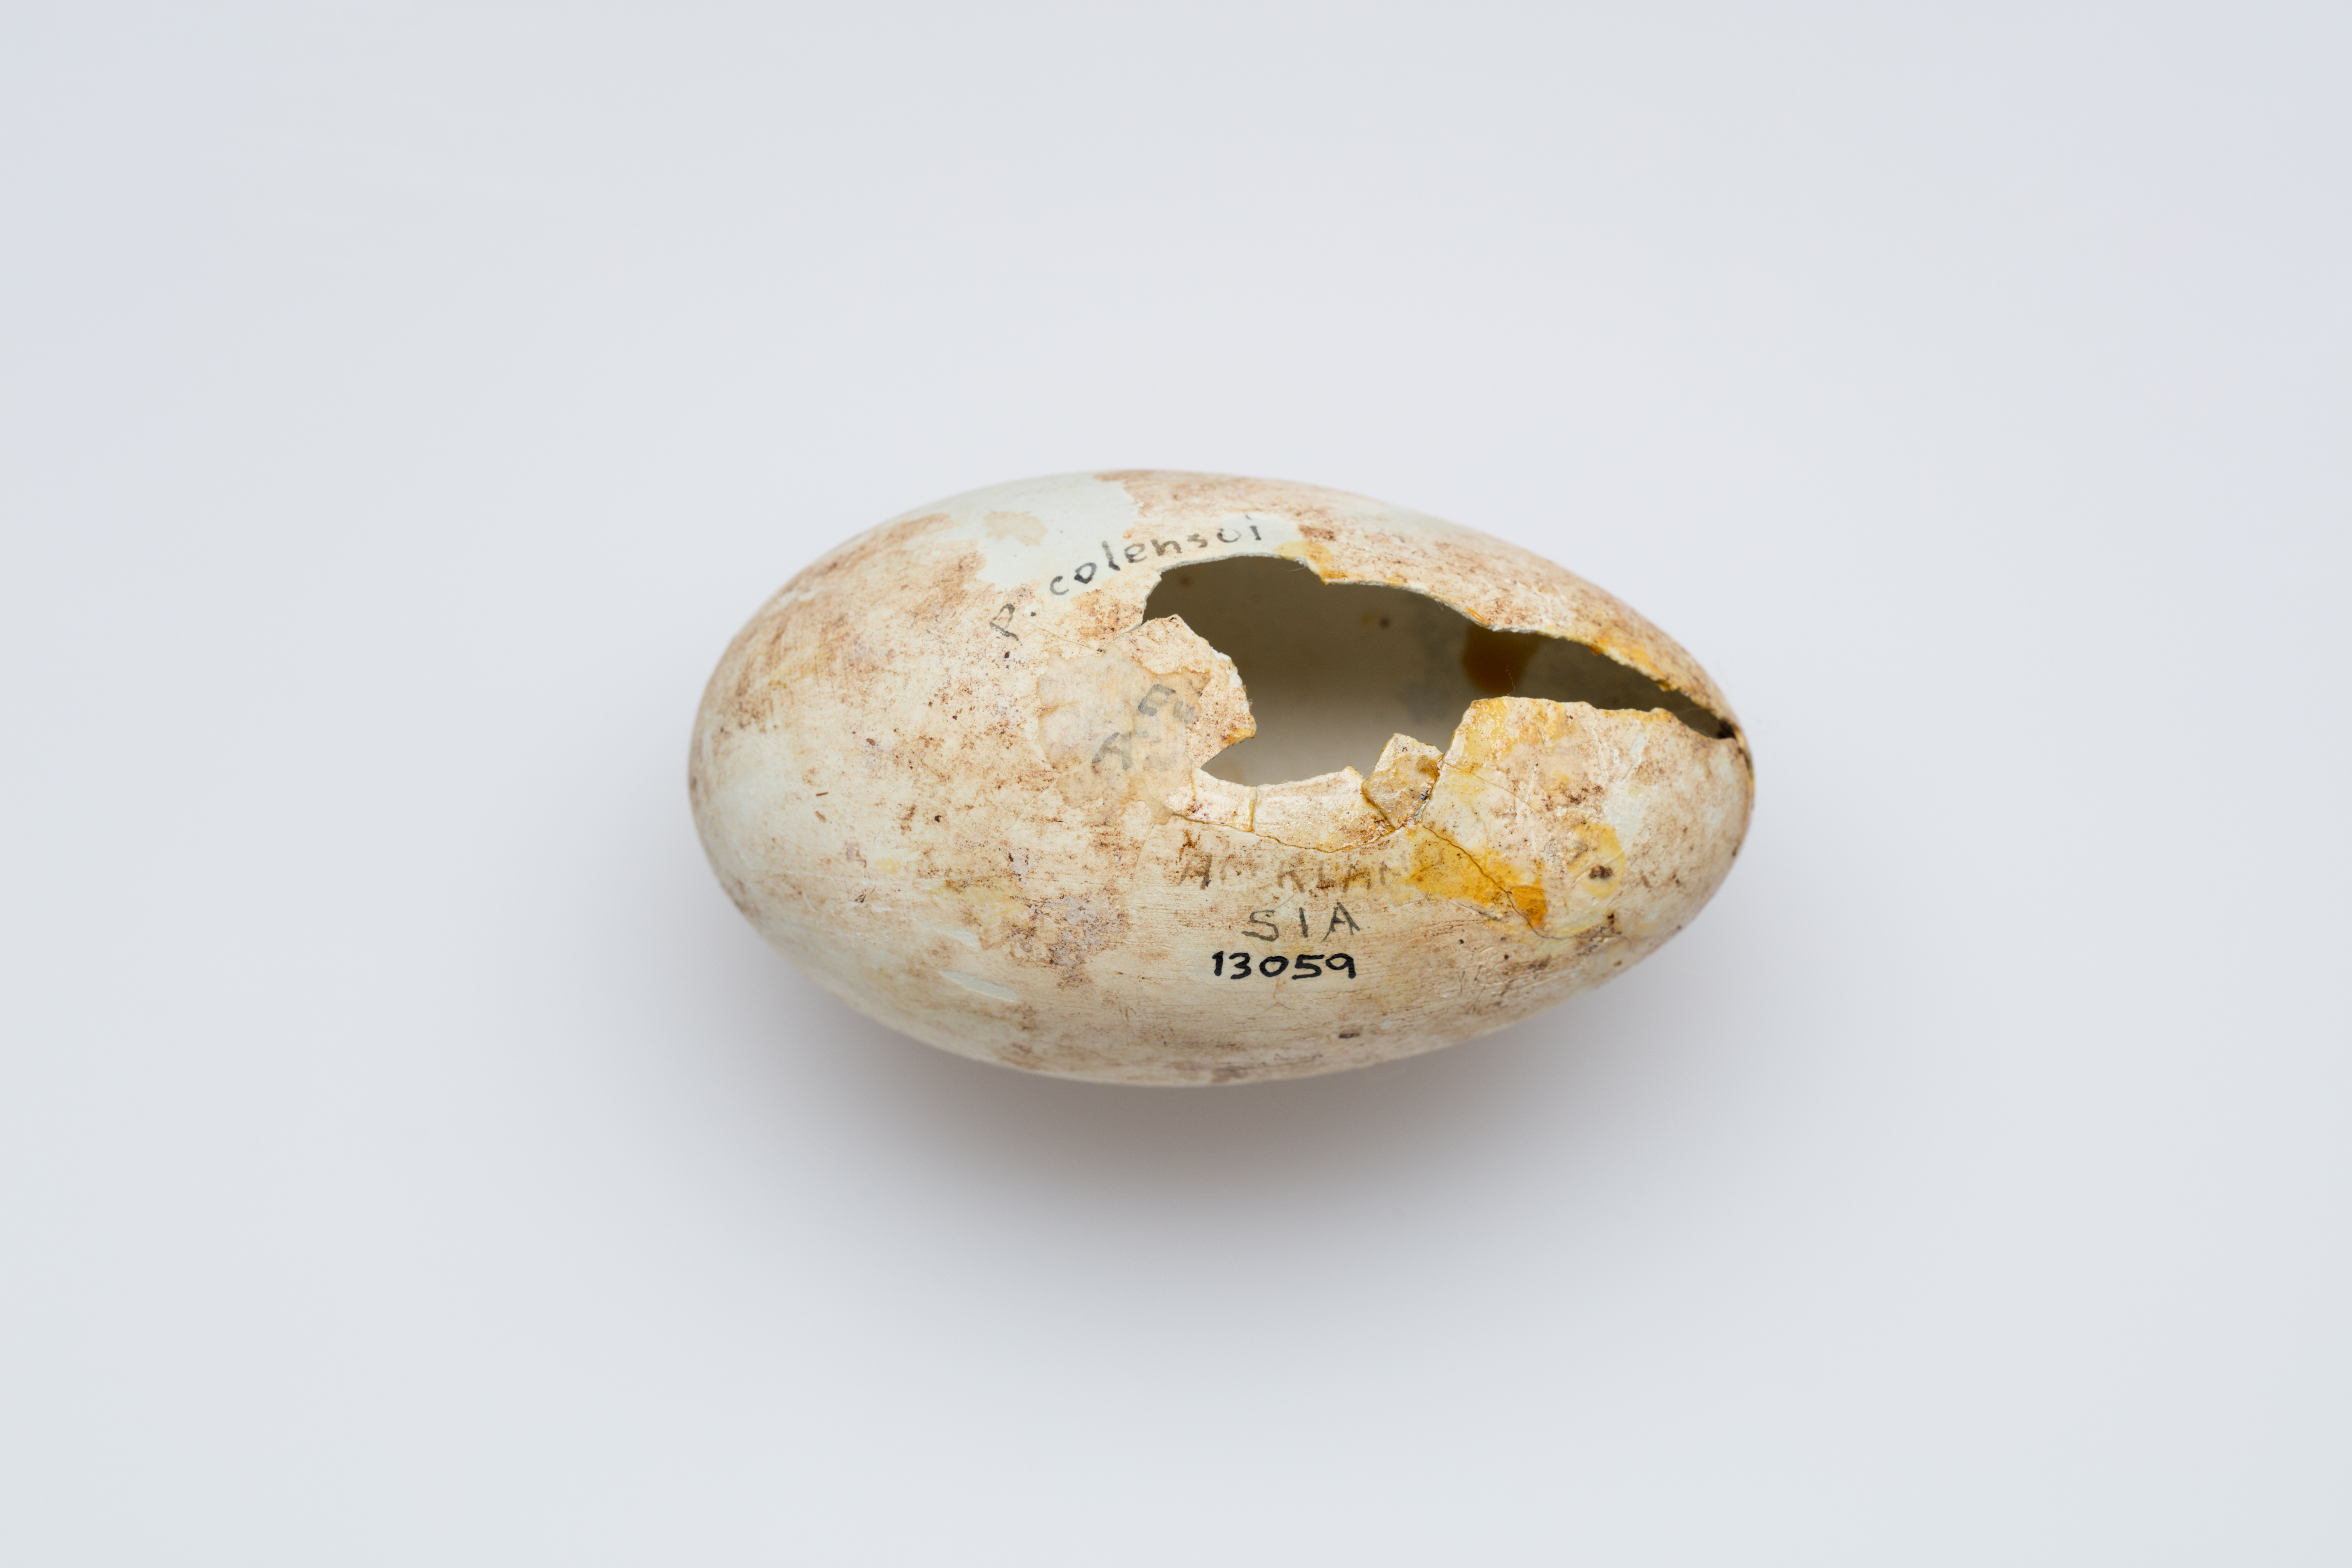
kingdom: Animalia
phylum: Chordata
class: Aves
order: Suliformes
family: Phalacrocoracidae
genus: Leucocarbo
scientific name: Leucocarbo colensoi
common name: Auckland shag
